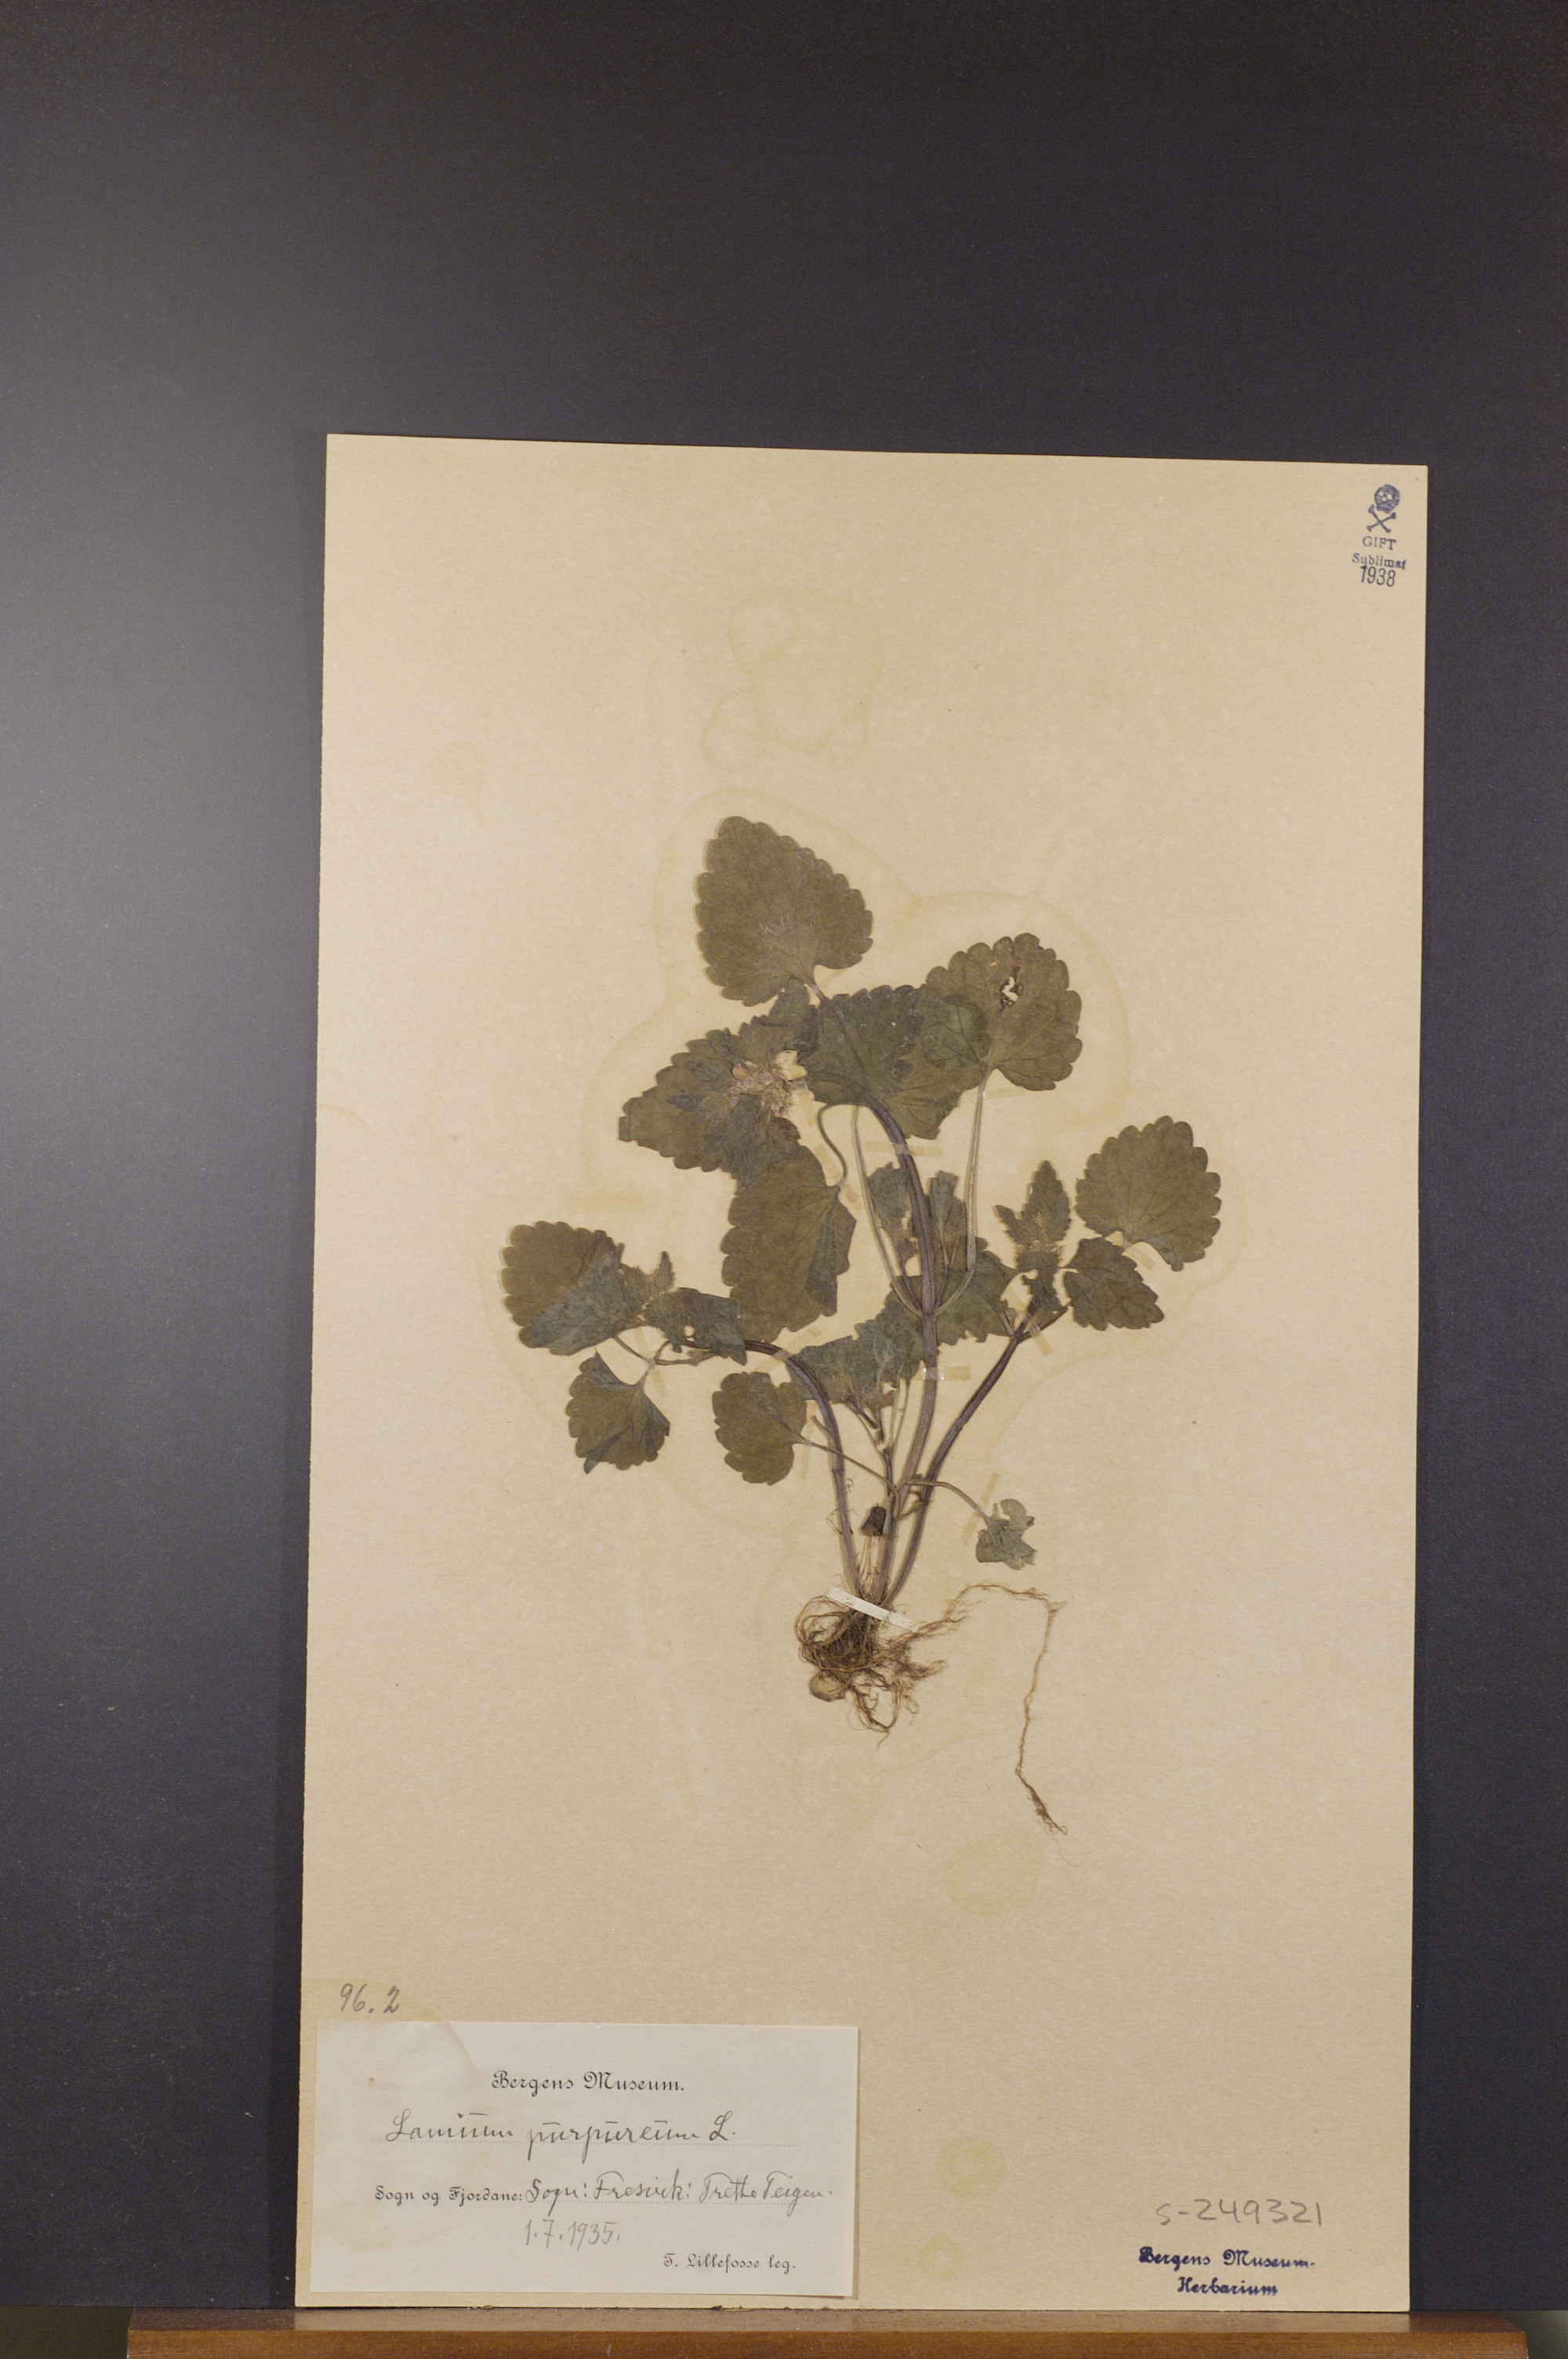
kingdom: Plantae
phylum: Tracheophyta
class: Magnoliopsida
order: Lamiales
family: Lamiaceae
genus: Lamium
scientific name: Lamium purpureum
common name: Red dead-nettle
